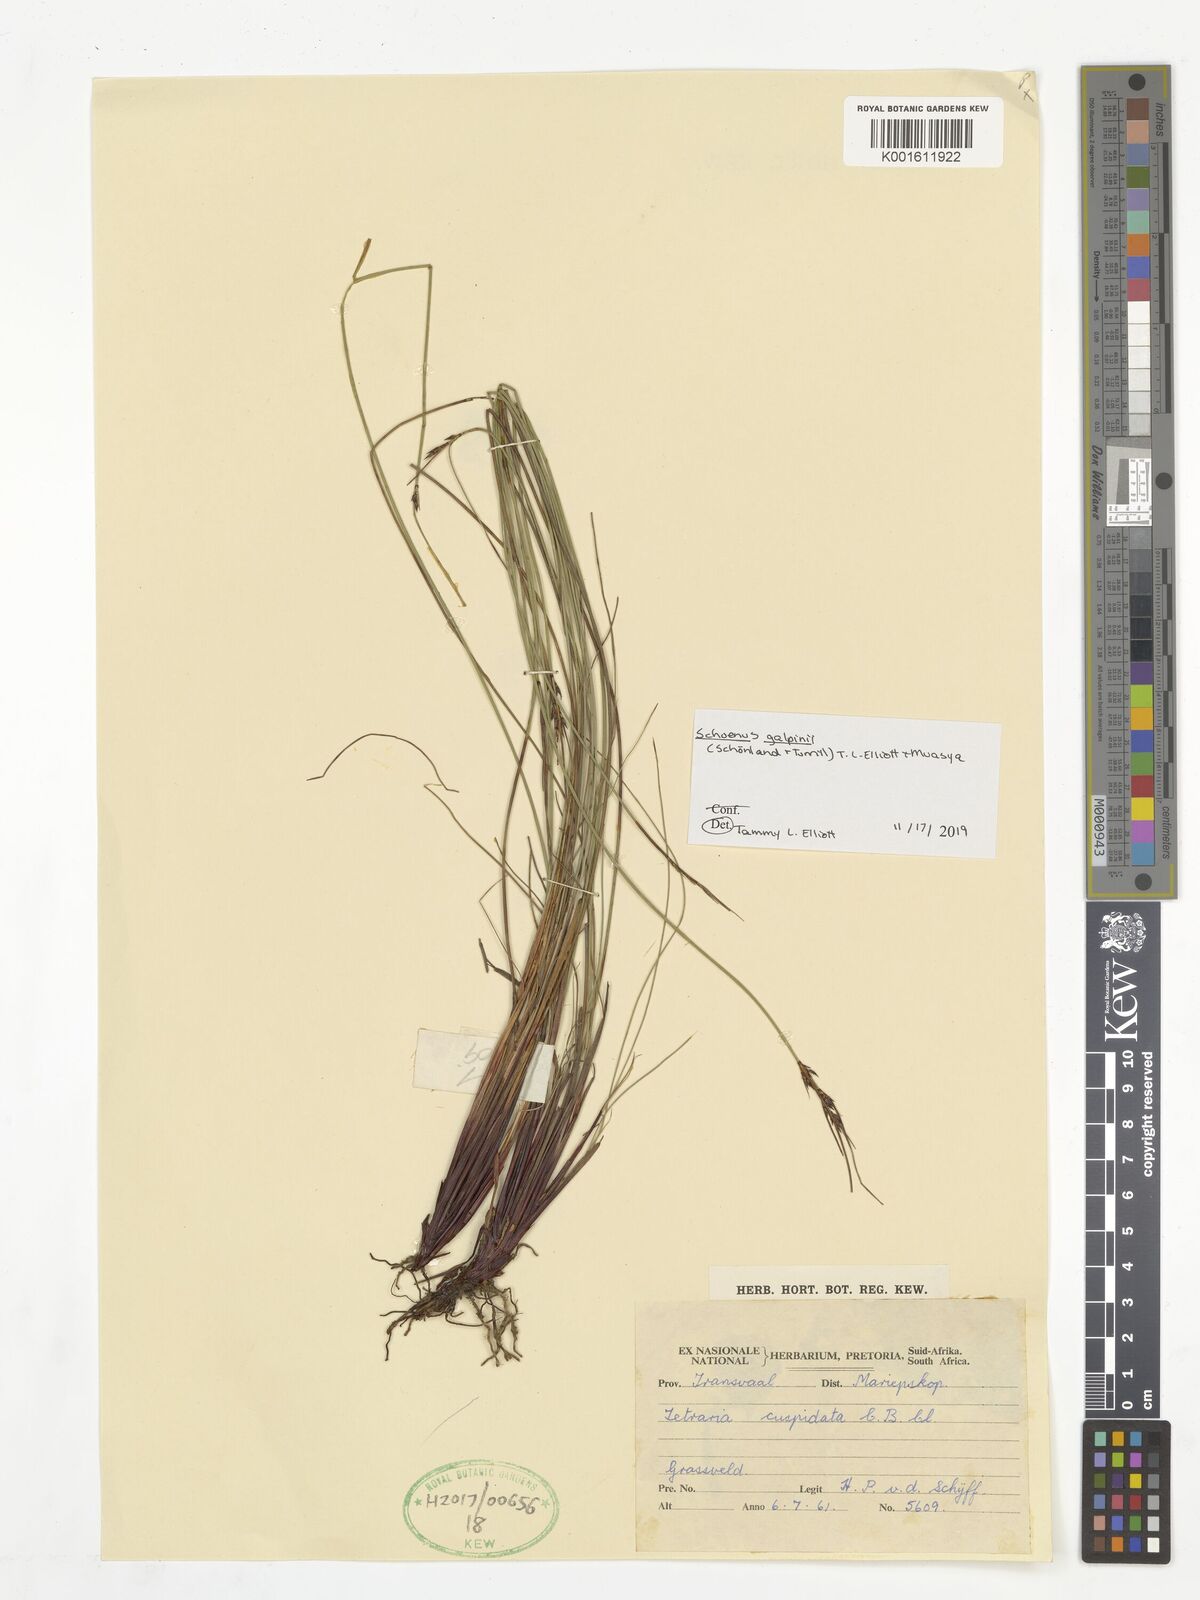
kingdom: Plantae
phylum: Tracheophyta
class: Liliopsida
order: Poales
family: Cyperaceae
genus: Schoenus
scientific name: Schoenus galpinii
